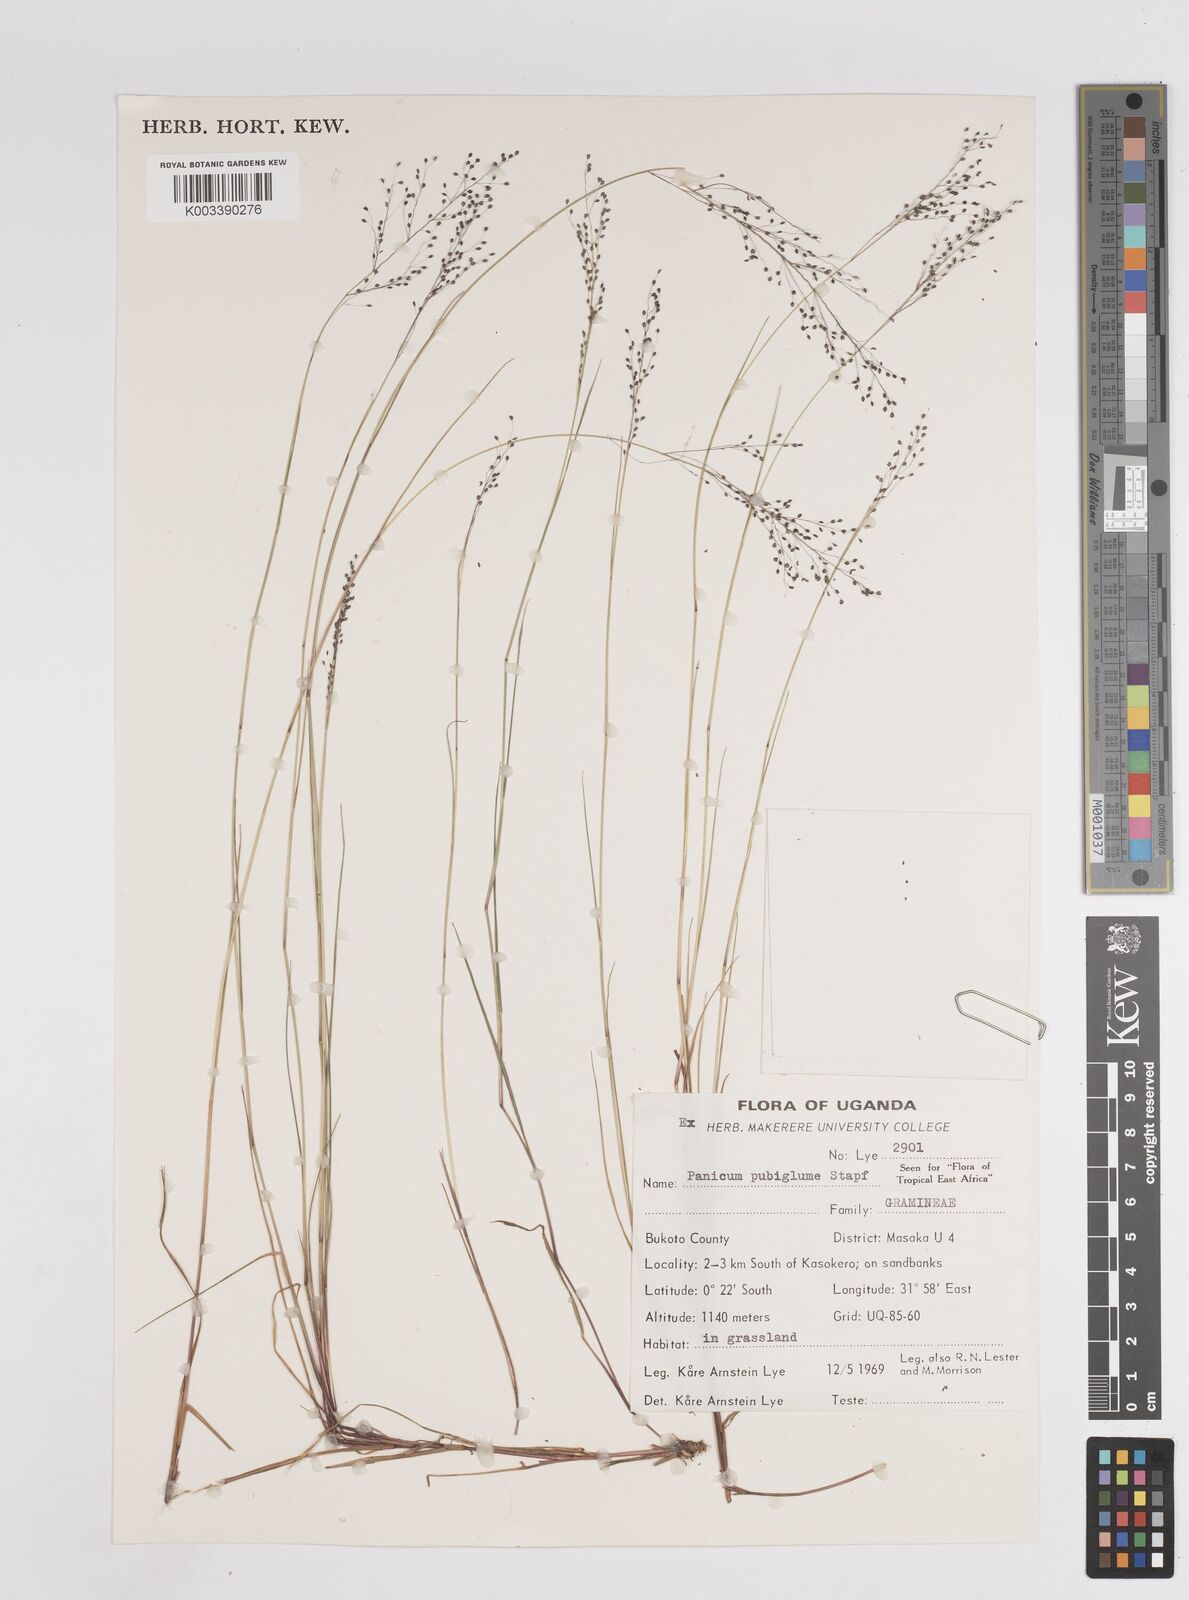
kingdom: Plantae
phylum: Tracheophyta
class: Liliopsida
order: Poales
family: Poaceae
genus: Trichanthecium
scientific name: Trichanthecium brazzavillense
